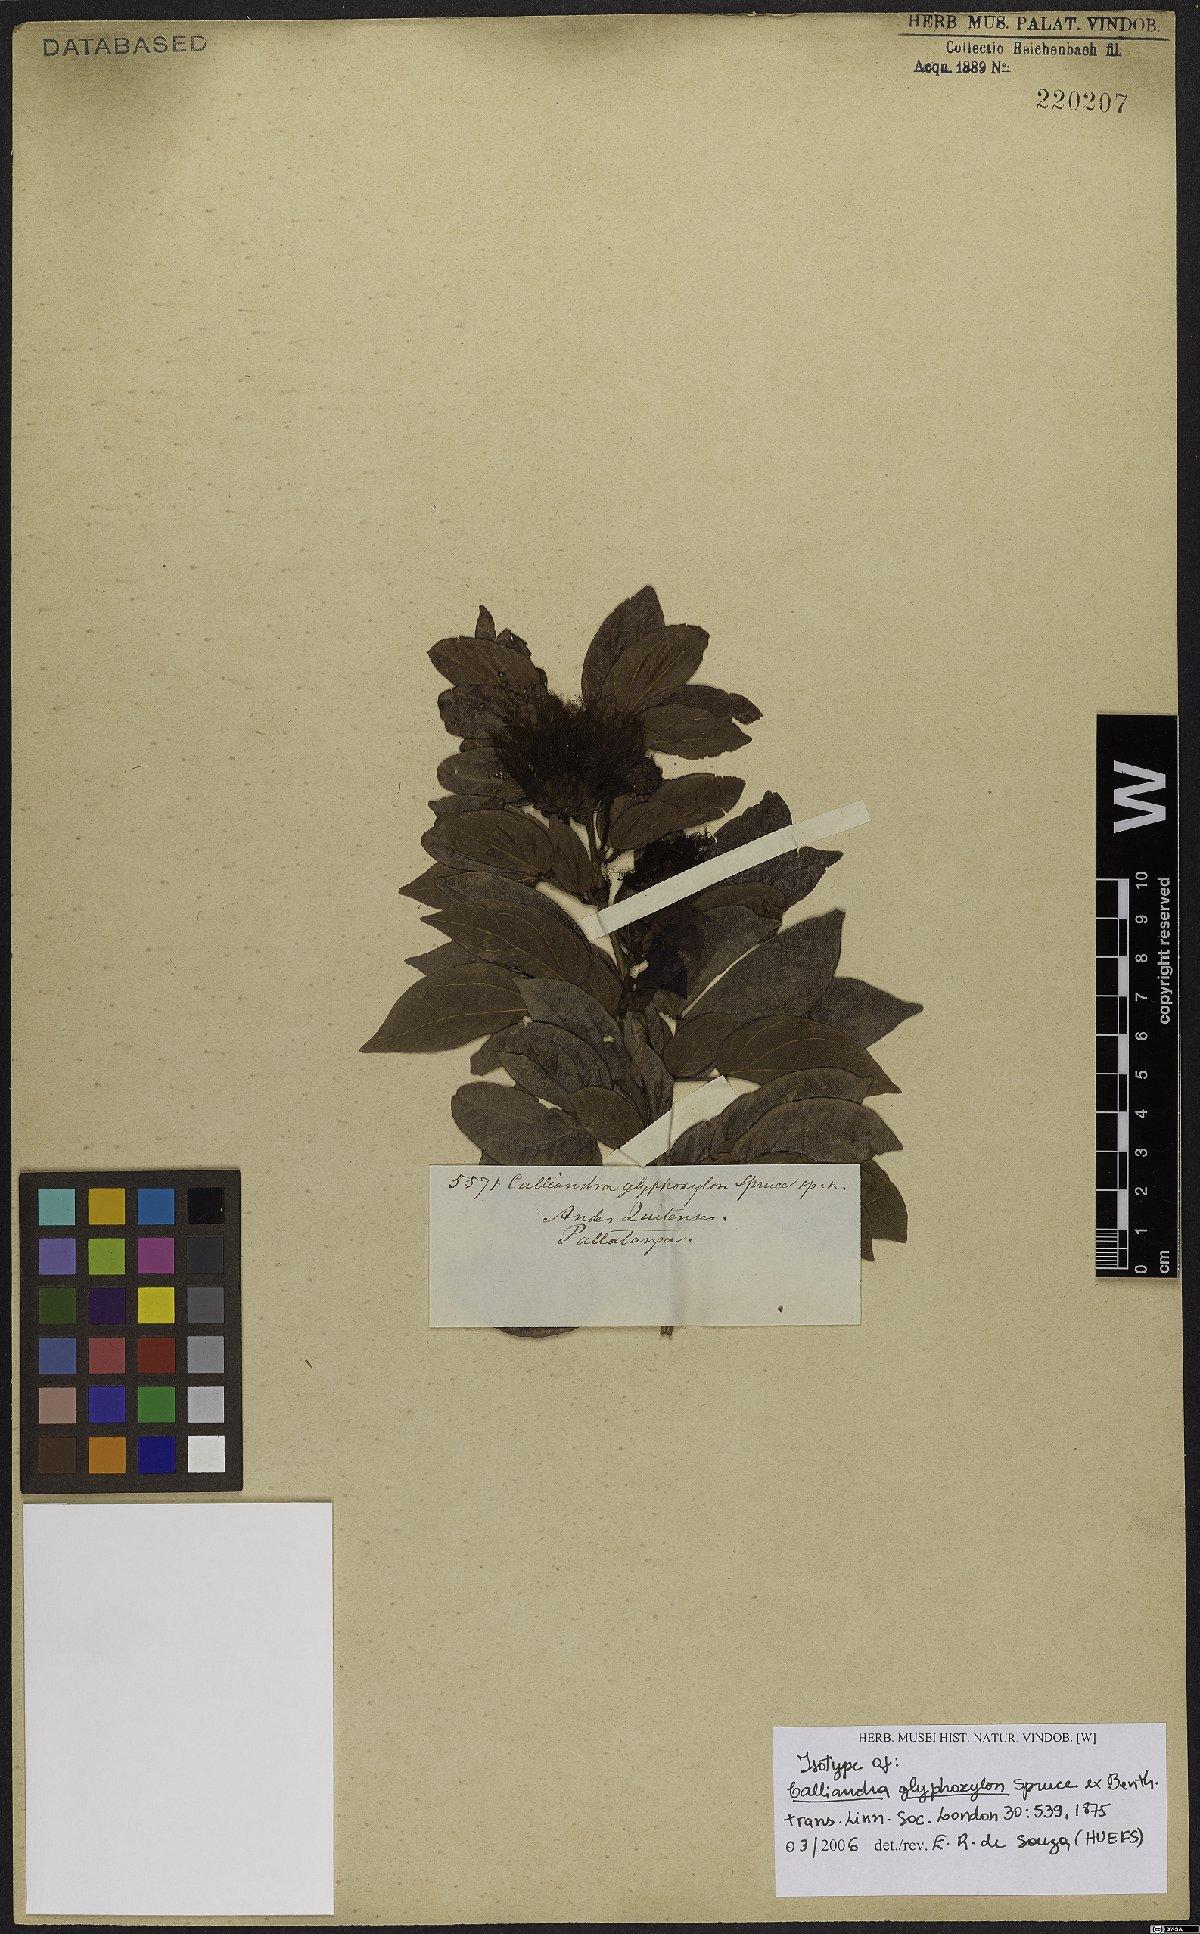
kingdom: Plantae
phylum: Tracheophyta
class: Magnoliopsida
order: Fabales
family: Fabaceae
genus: Calliandra
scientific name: Calliandra glyphoxylon
